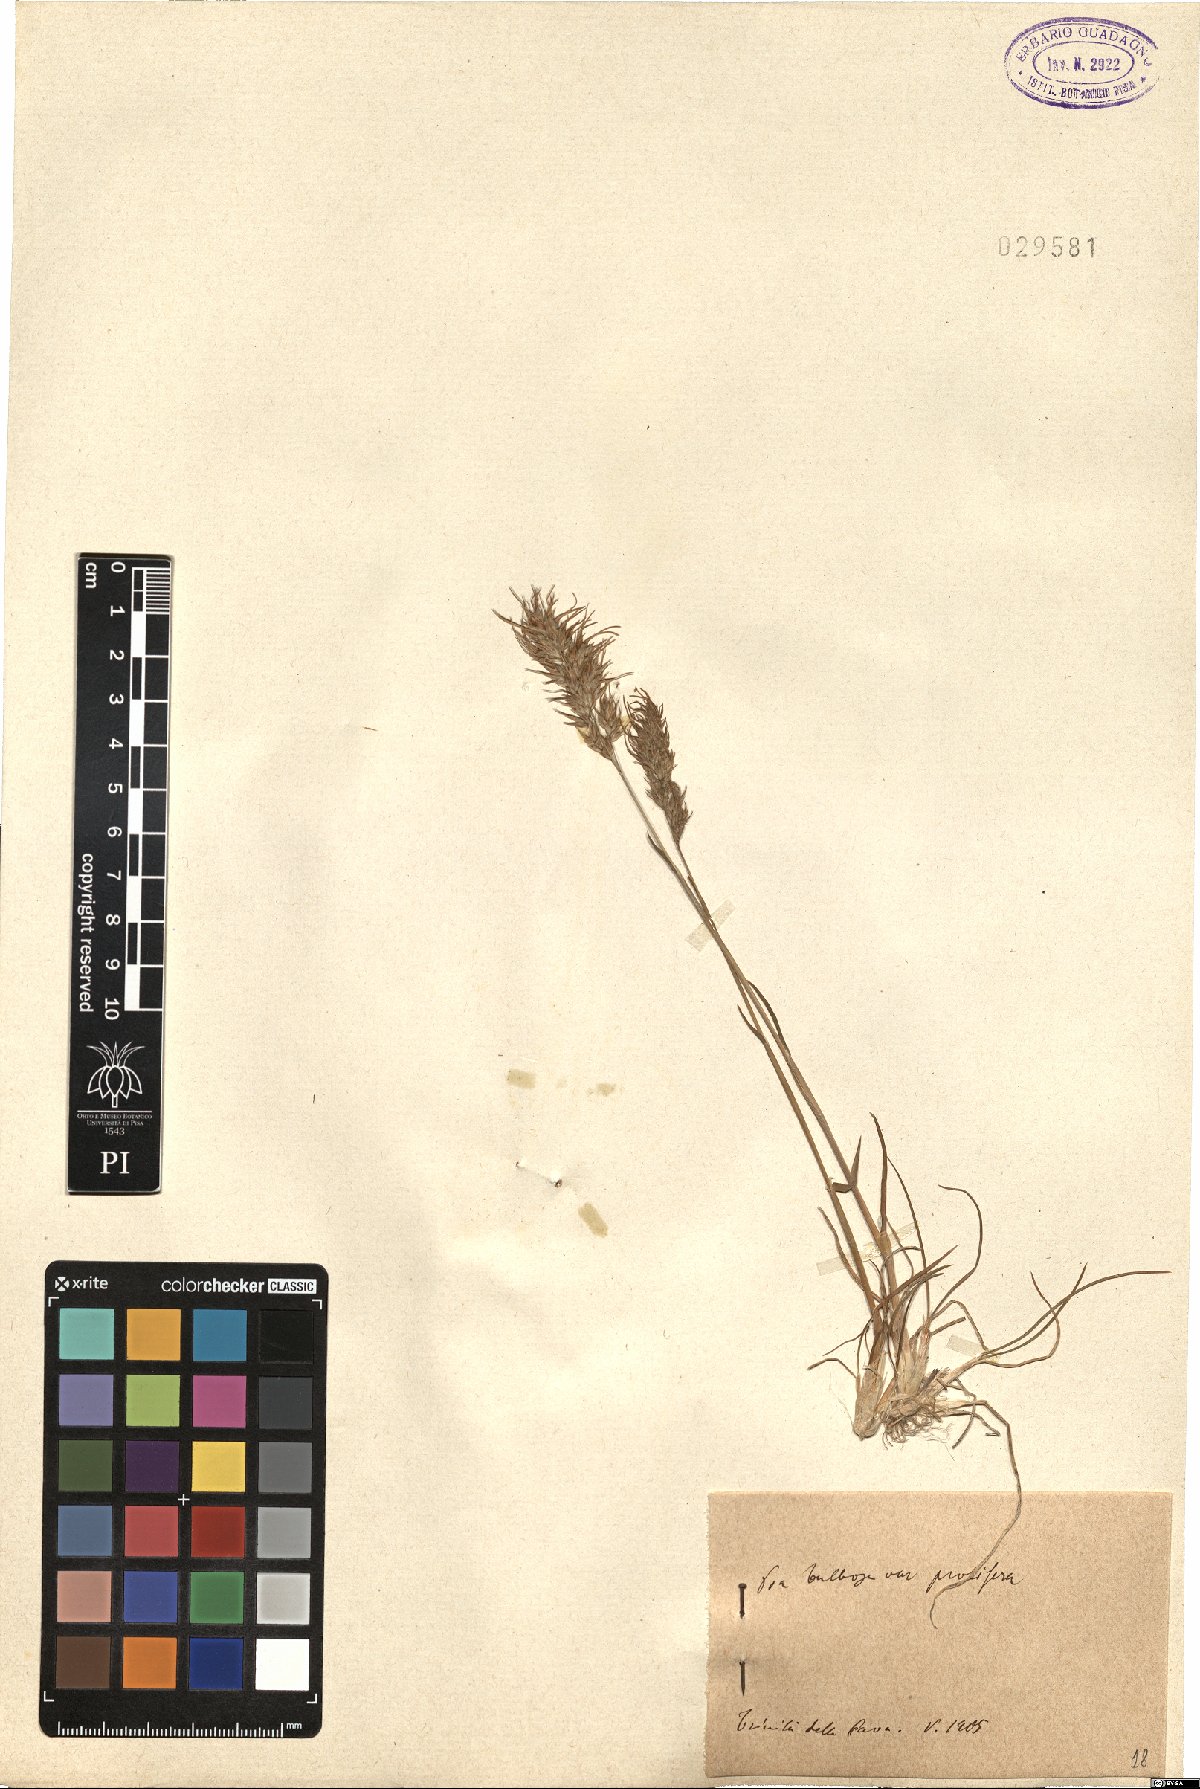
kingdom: Plantae
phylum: Tracheophyta
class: Liliopsida
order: Poales
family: Poaceae
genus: Poa
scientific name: Poa bulbosa
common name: Bulbous bluegrass
